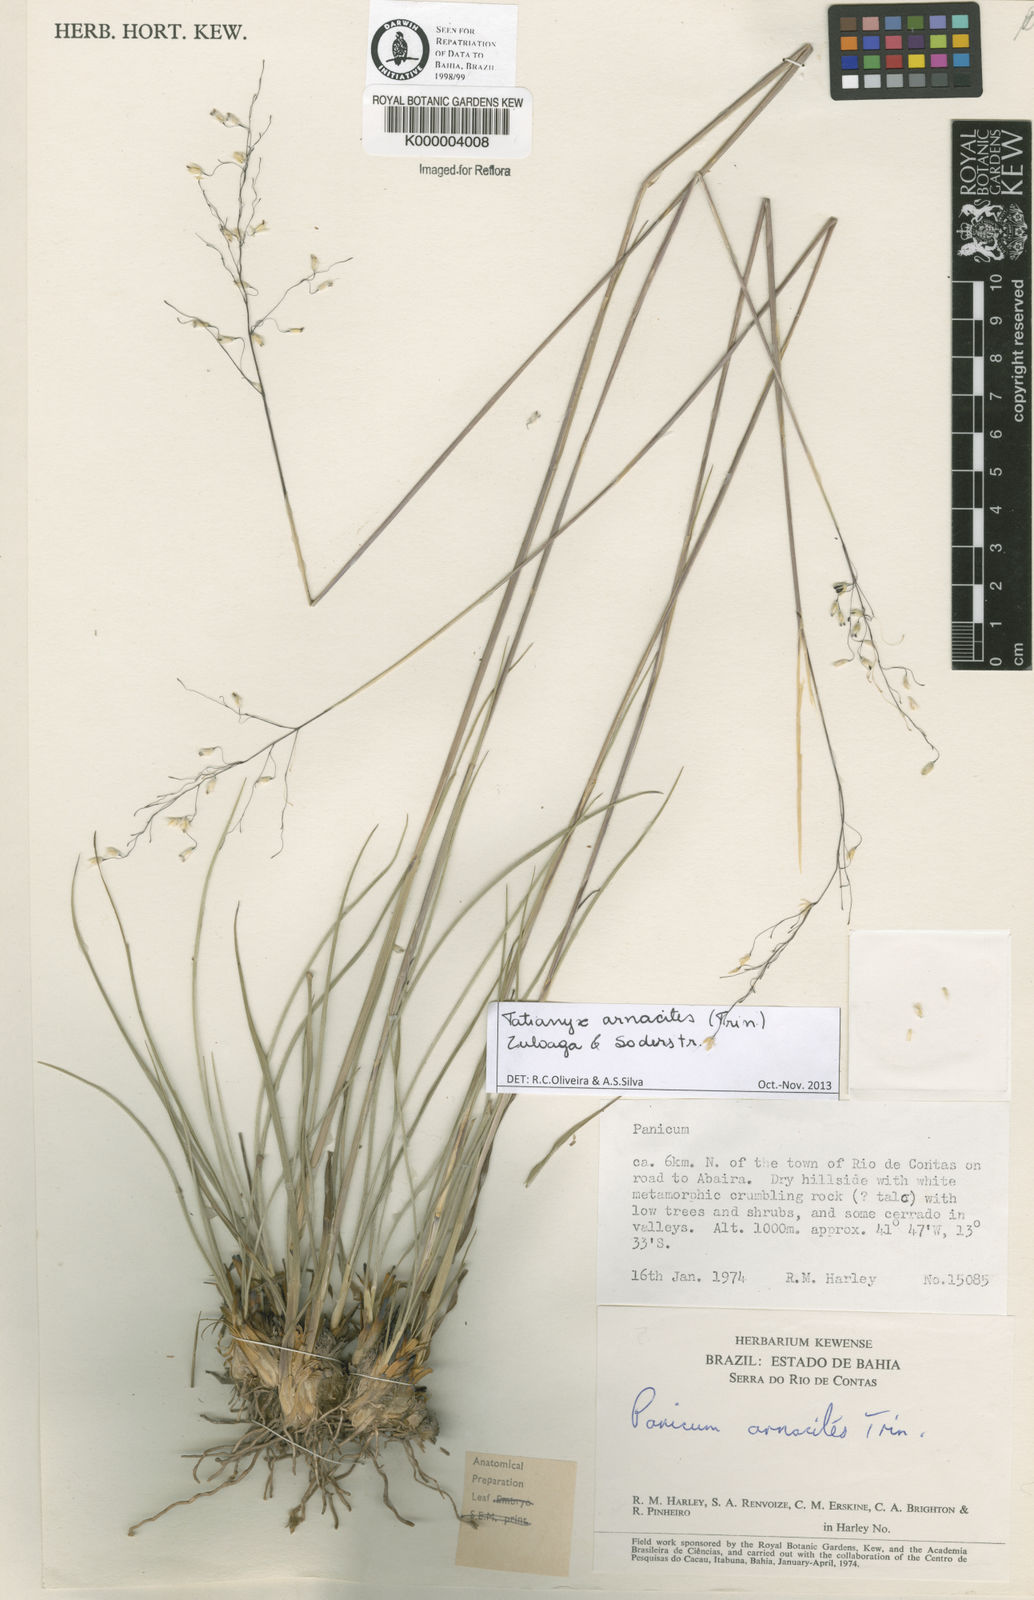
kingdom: Plantae
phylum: Tracheophyta
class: Liliopsida
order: Poales
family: Poaceae
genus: Tatianyx
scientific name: Tatianyx arnacites
